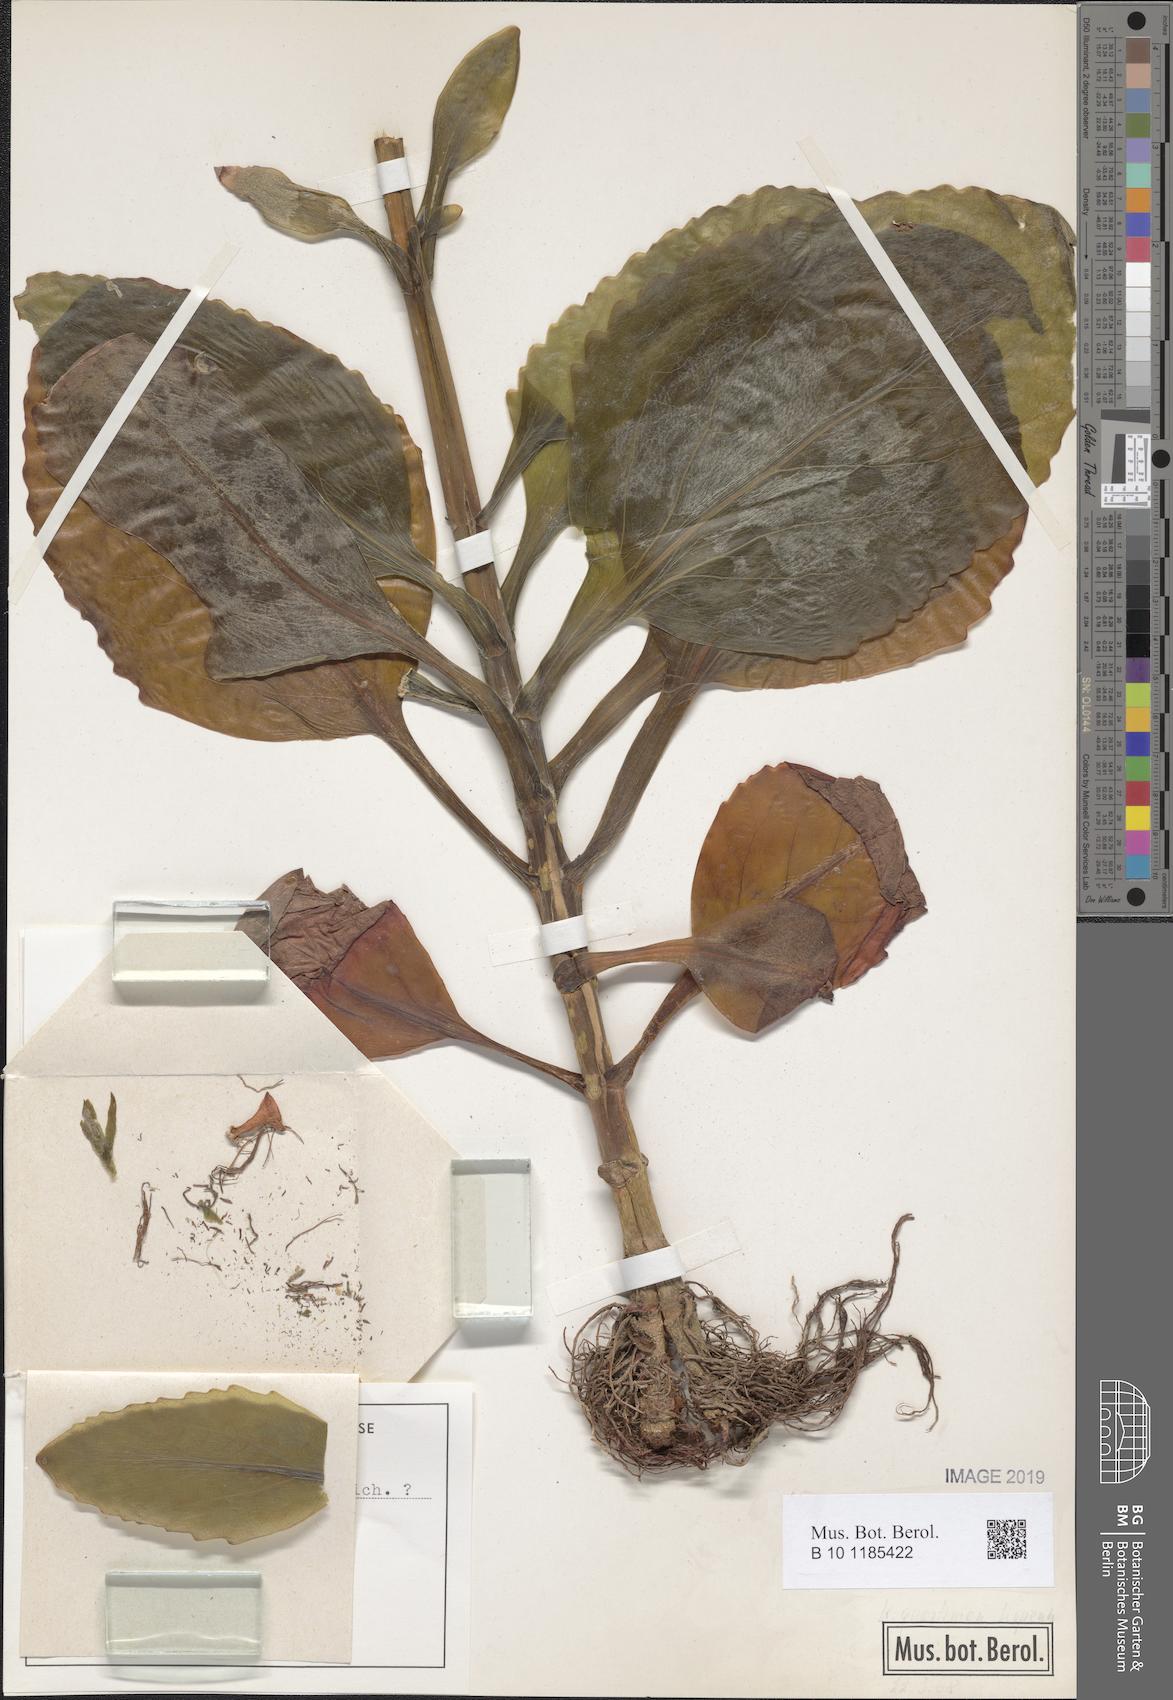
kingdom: Plantae
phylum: Tracheophyta
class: Magnoliopsida
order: Saxifragales
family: Crassulaceae
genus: Kalanchoe
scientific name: Kalanchoe dyeri
